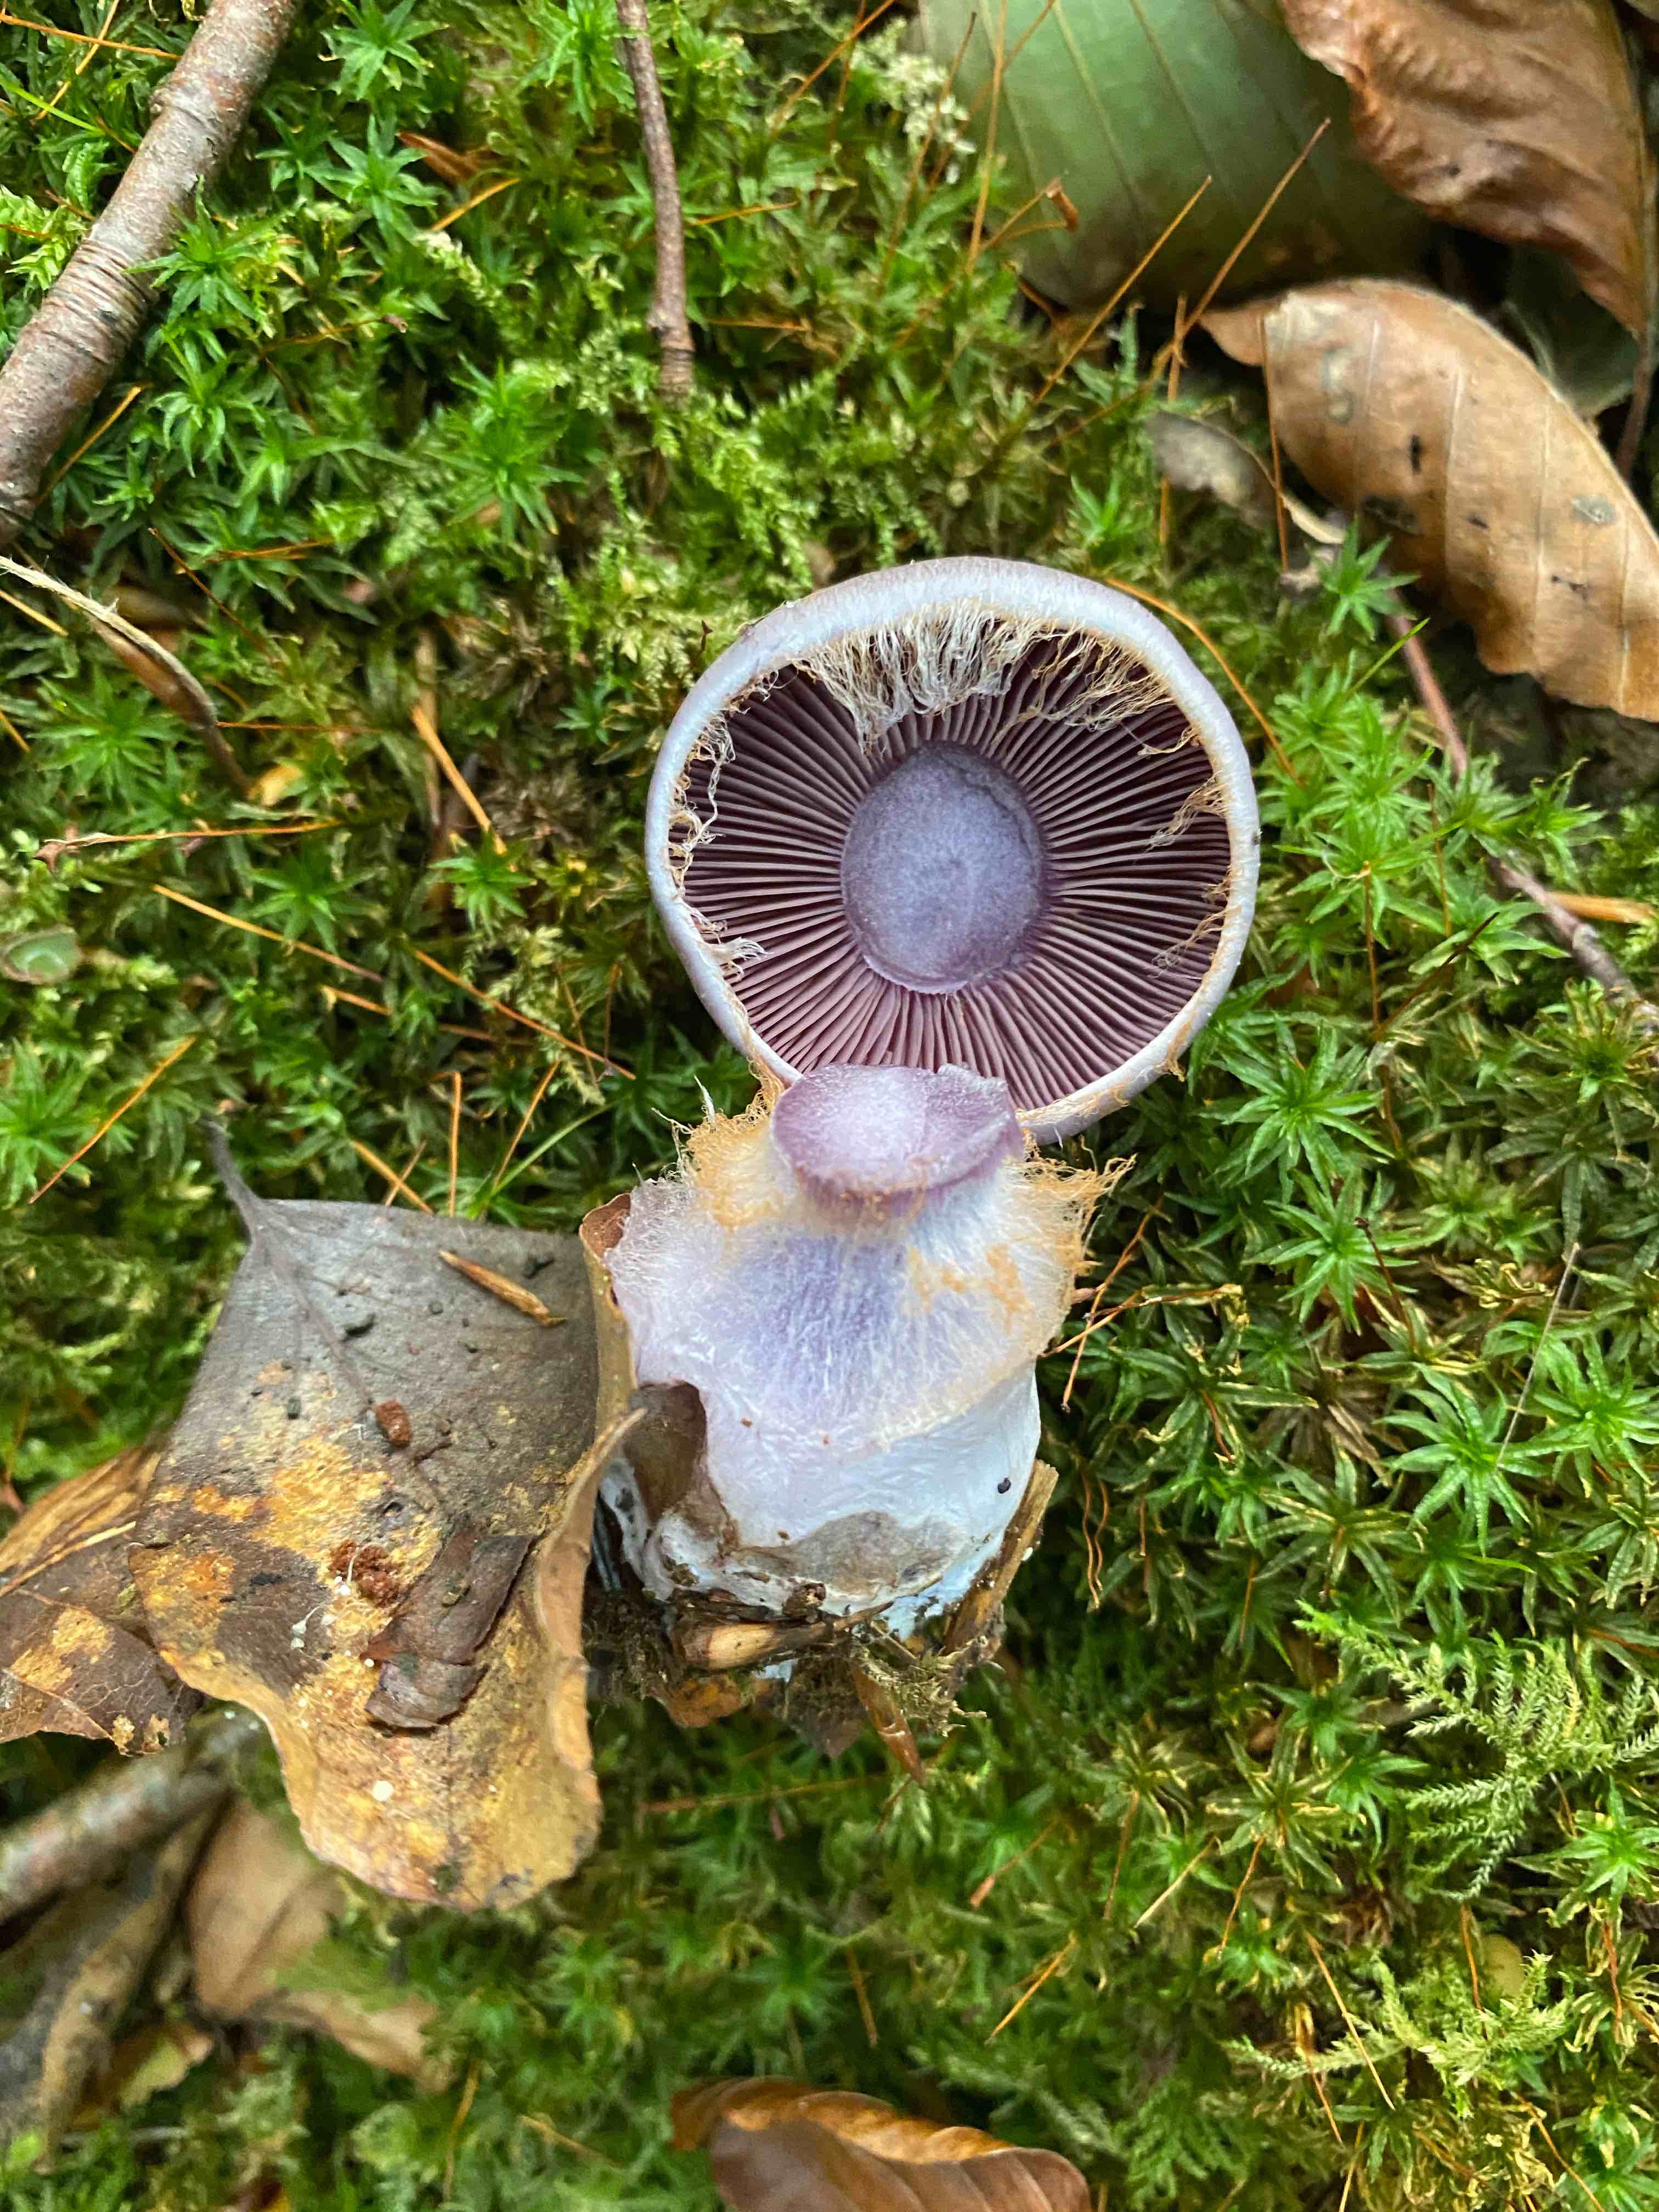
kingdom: Fungi
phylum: Basidiomycota
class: Agaricomycetes
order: Agaricales
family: Cortinariaceae
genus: Cortinarius
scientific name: Cortinarius
